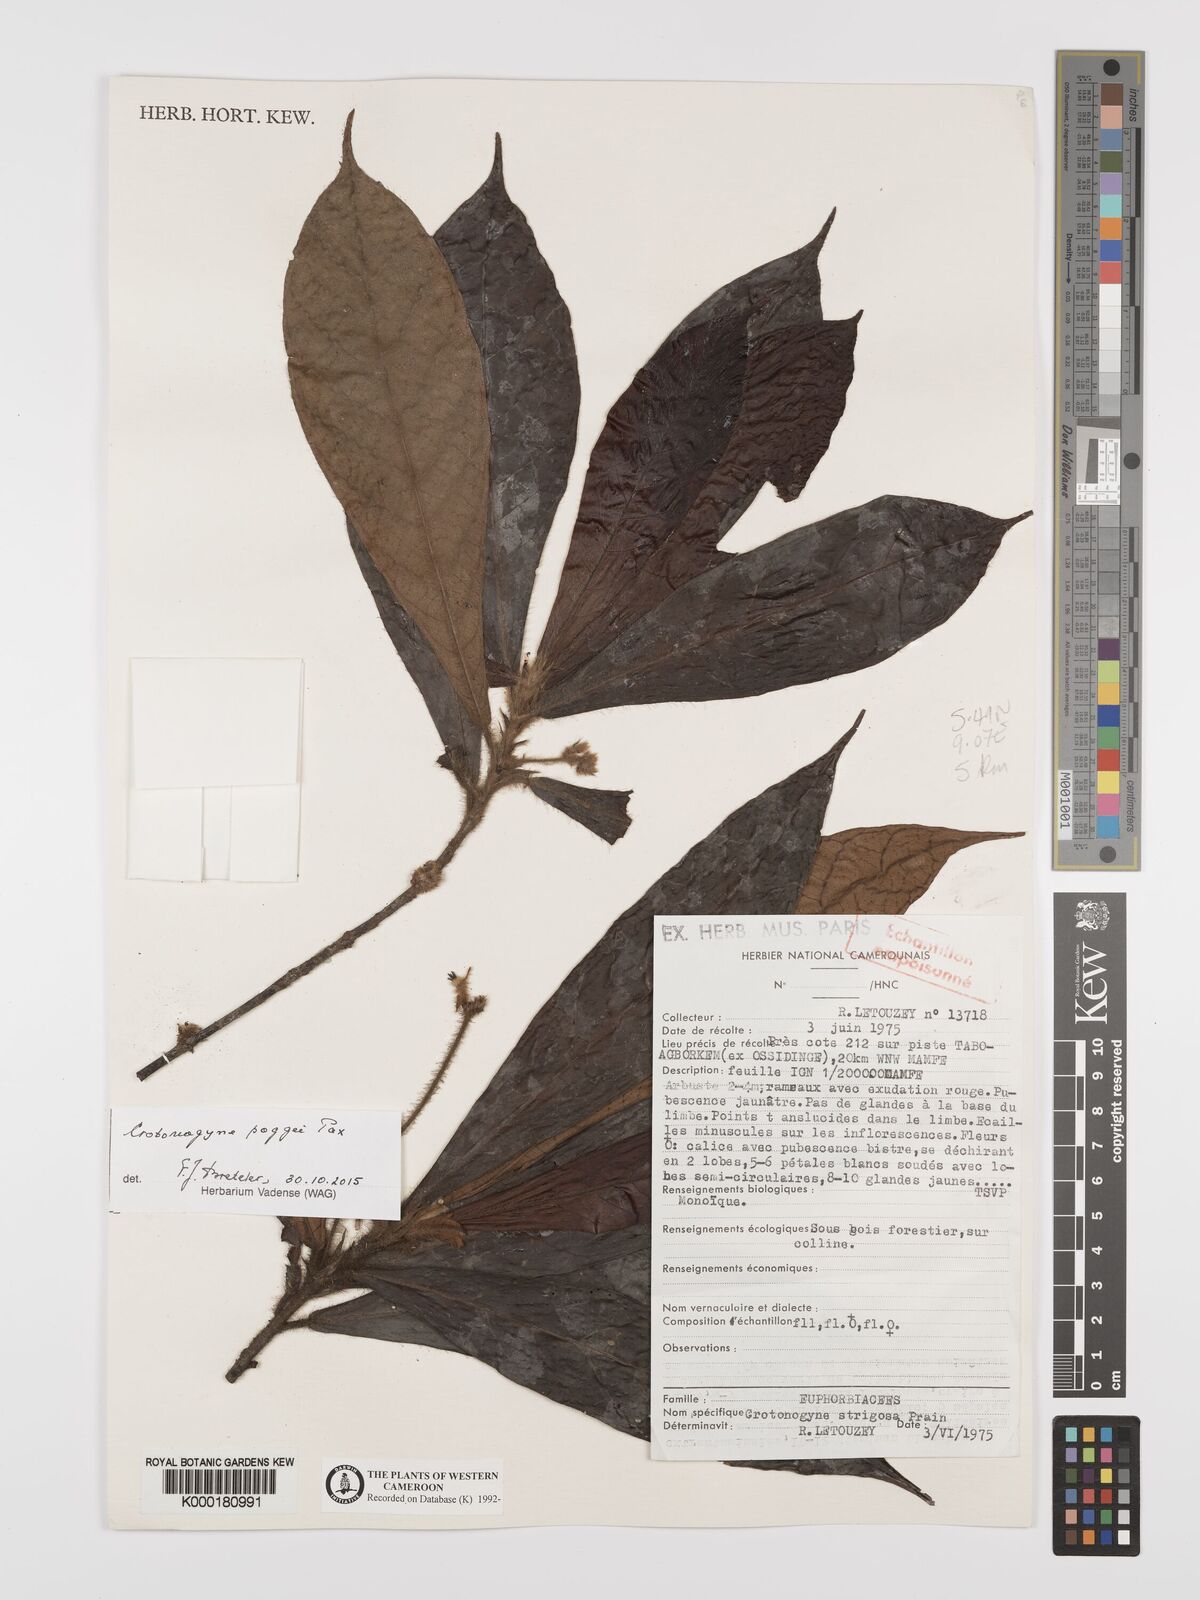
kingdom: Plantae
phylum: Tracheophyta
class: Magnoliopsida
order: Malpighiales
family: Euphorbiaceae
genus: Crotonogyne
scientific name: Crotonogyne poggei
